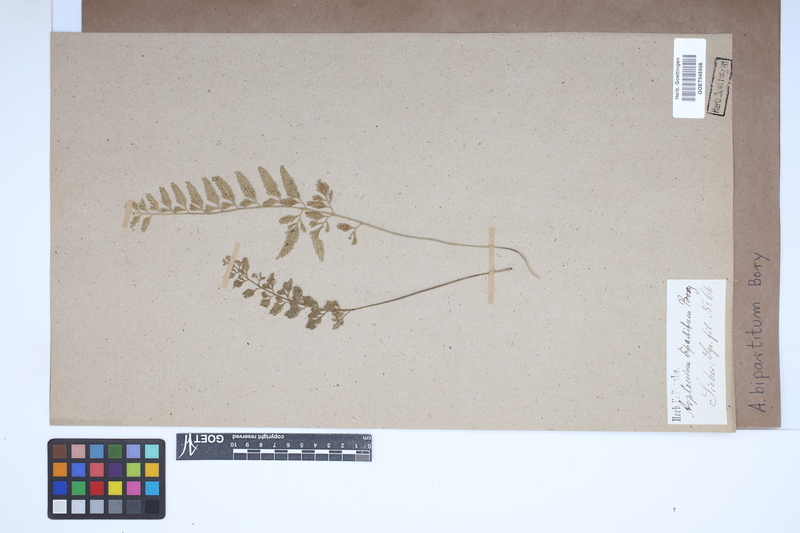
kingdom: Plantae
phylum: Tracheophyta
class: Polypodiopsida
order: Polypodiales
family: Aspleniaceae
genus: Asplenium
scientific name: Asplenium bipartitum
